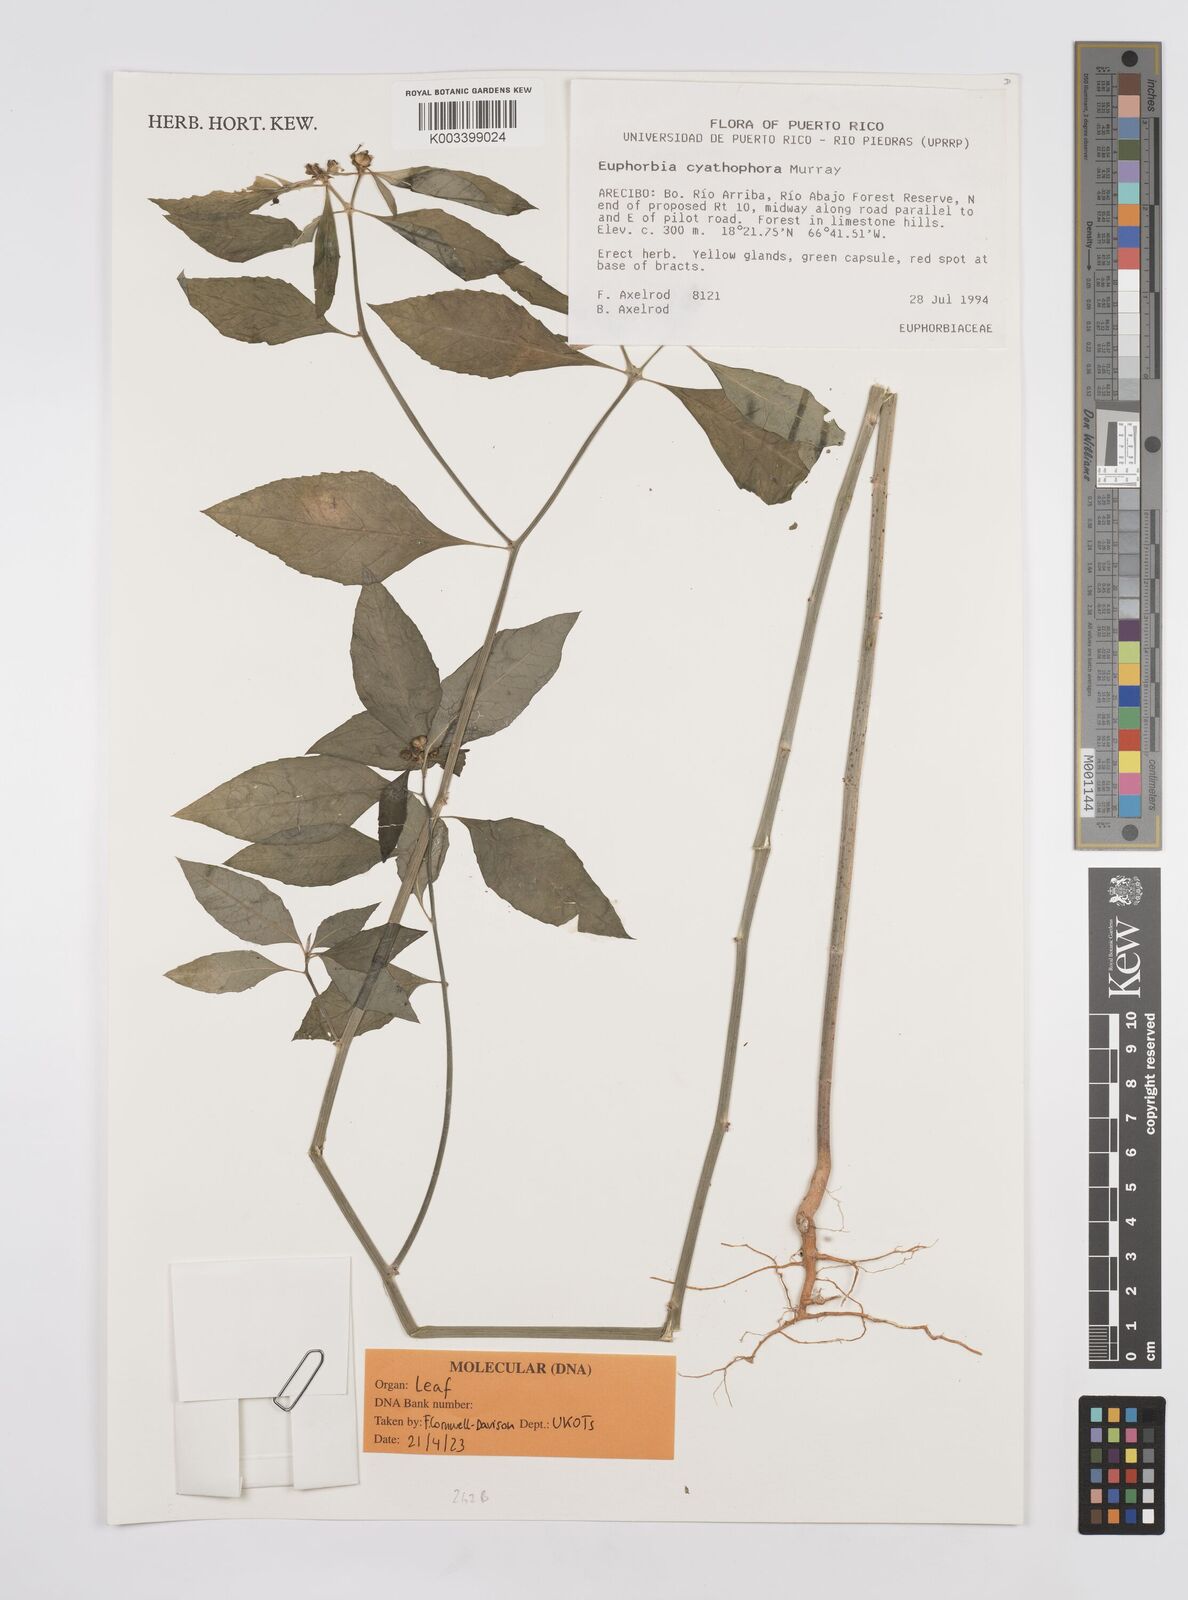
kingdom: Plantae
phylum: Tracheophyta
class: Magnoliopsida
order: Malpighiales
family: Euphorbiaceae
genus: Euphorbia
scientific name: Euphorbia heterophylla
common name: Mexican fireplant
